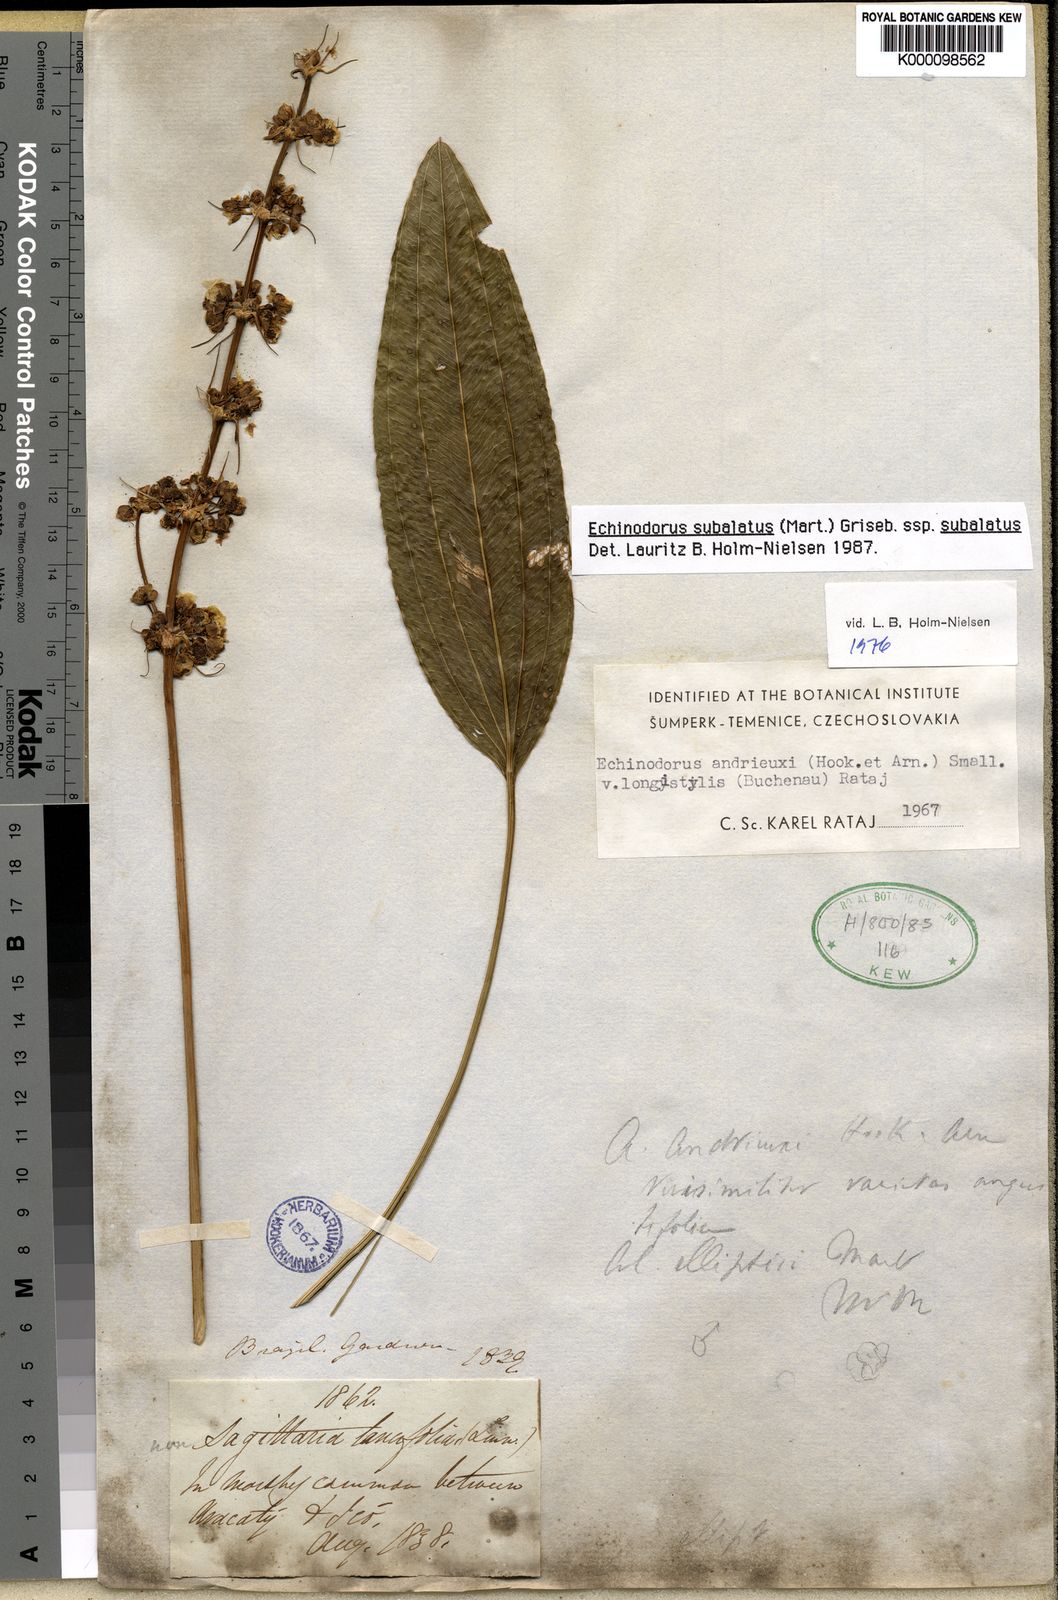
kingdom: Plantae
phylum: Tracheophyta
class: Liliopsida
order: Alismatales
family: Alismataceae
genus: Aquarius
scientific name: Aquarius subulatus
